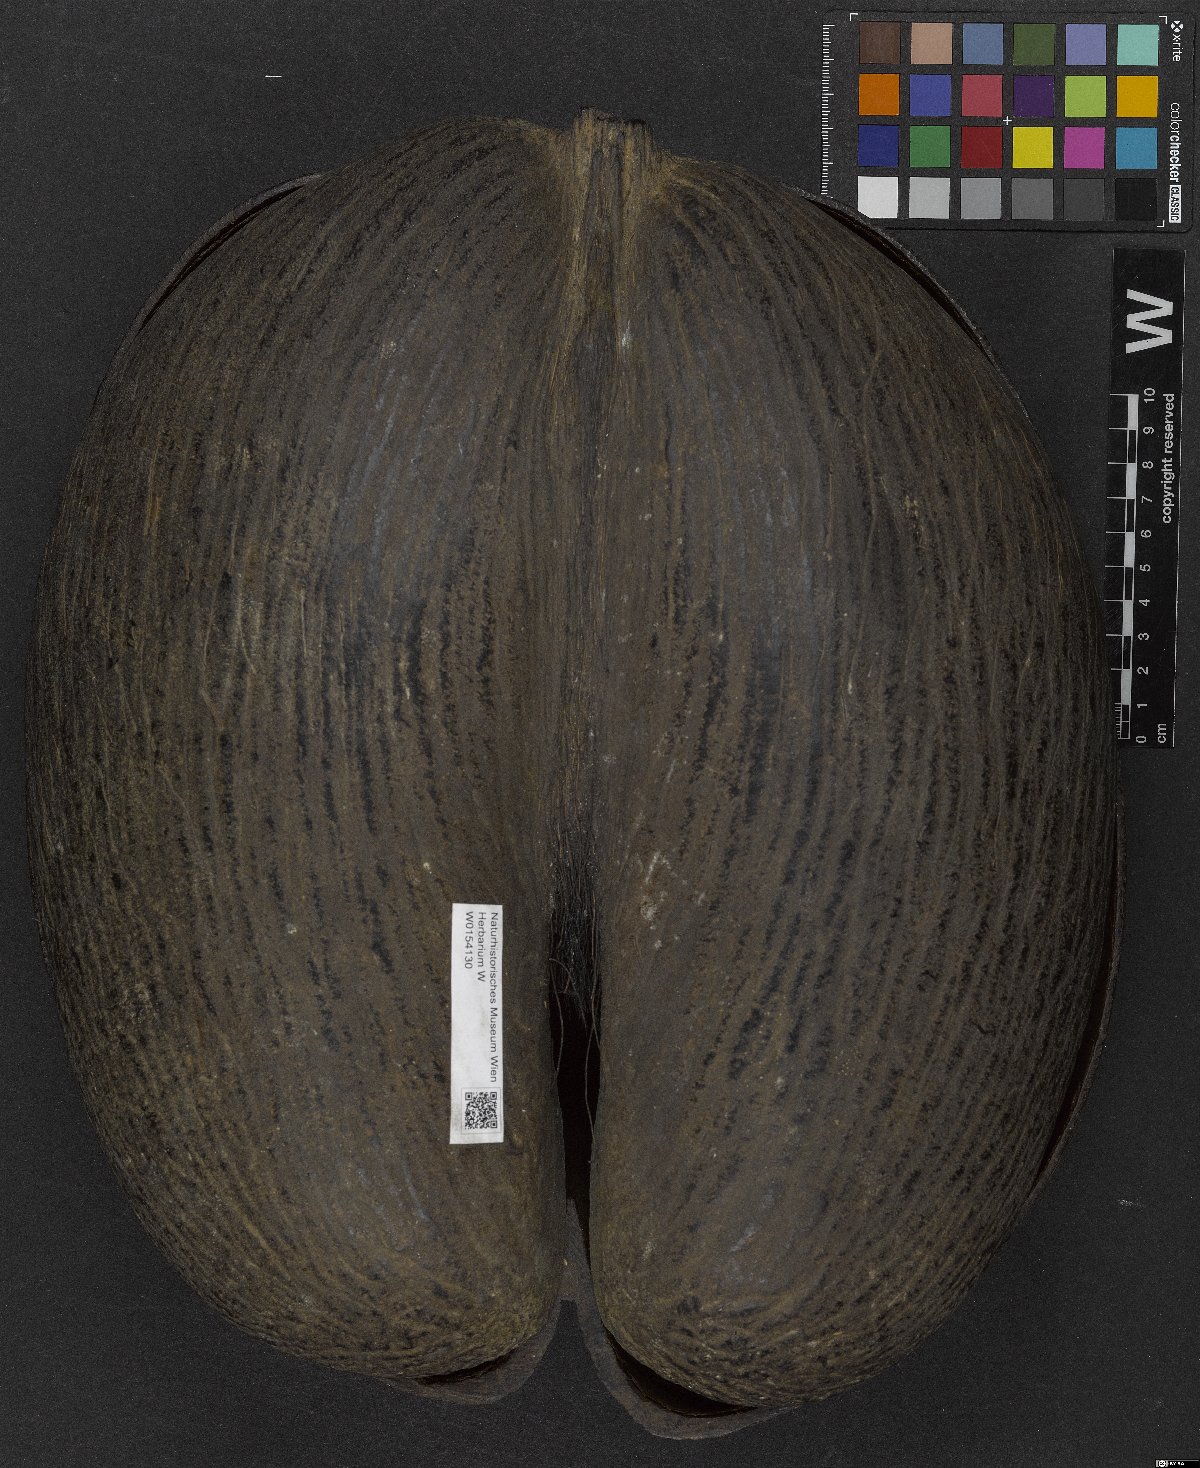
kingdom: Plantae
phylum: Tracheophyta
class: Liliopsida
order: Arecales
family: Arecaceae
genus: Lodoicea
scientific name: Lodoicea maldivica
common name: Double coconut palm
